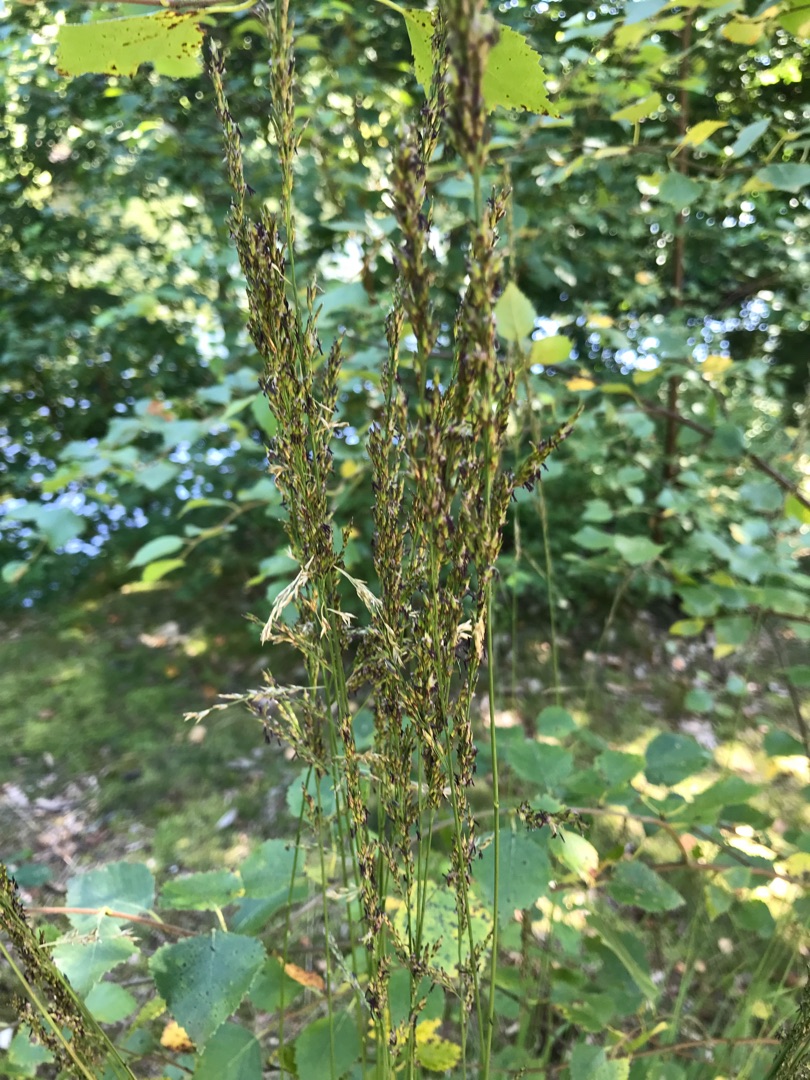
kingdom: Plantae
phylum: Tracheophyta
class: Liliopsida
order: Poales
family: Poaceae
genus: Molinia
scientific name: Molinia caerulea
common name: Blåtop
